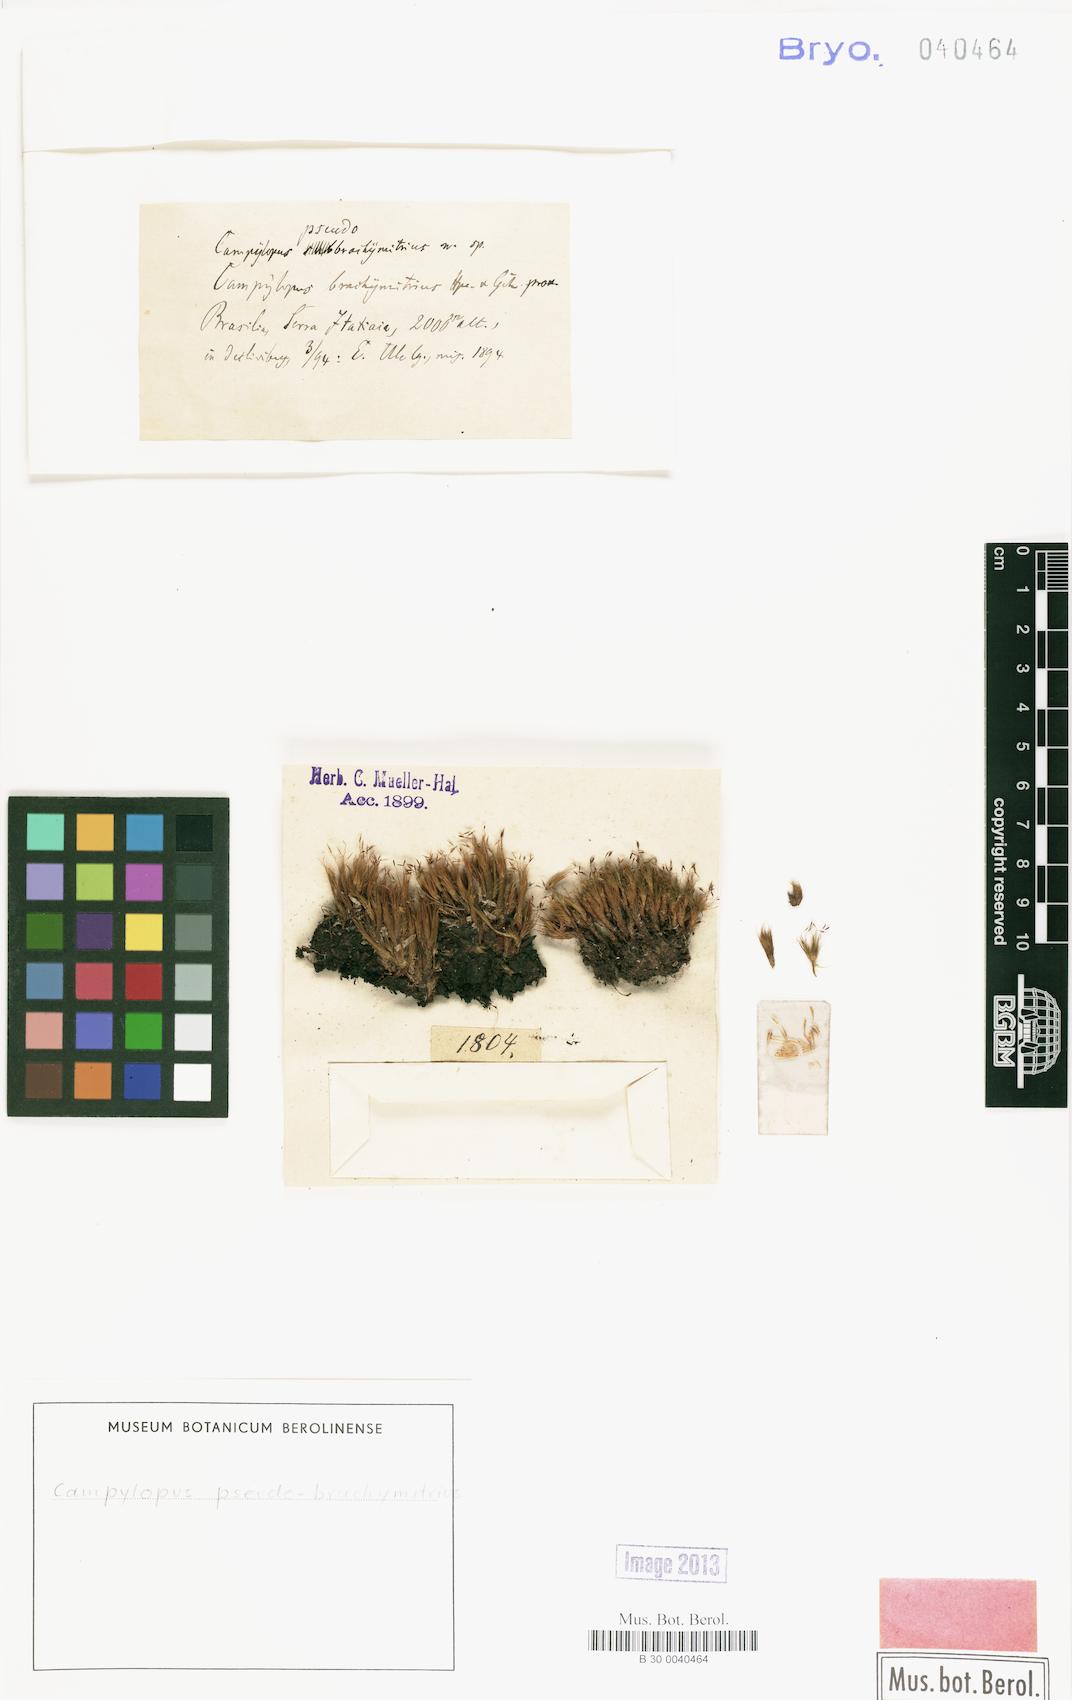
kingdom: Plantae
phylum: Bryophyta
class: Bryopsida
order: Dicranales
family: Leucobryaceae
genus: Campylopus
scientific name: Campylopus occultus
